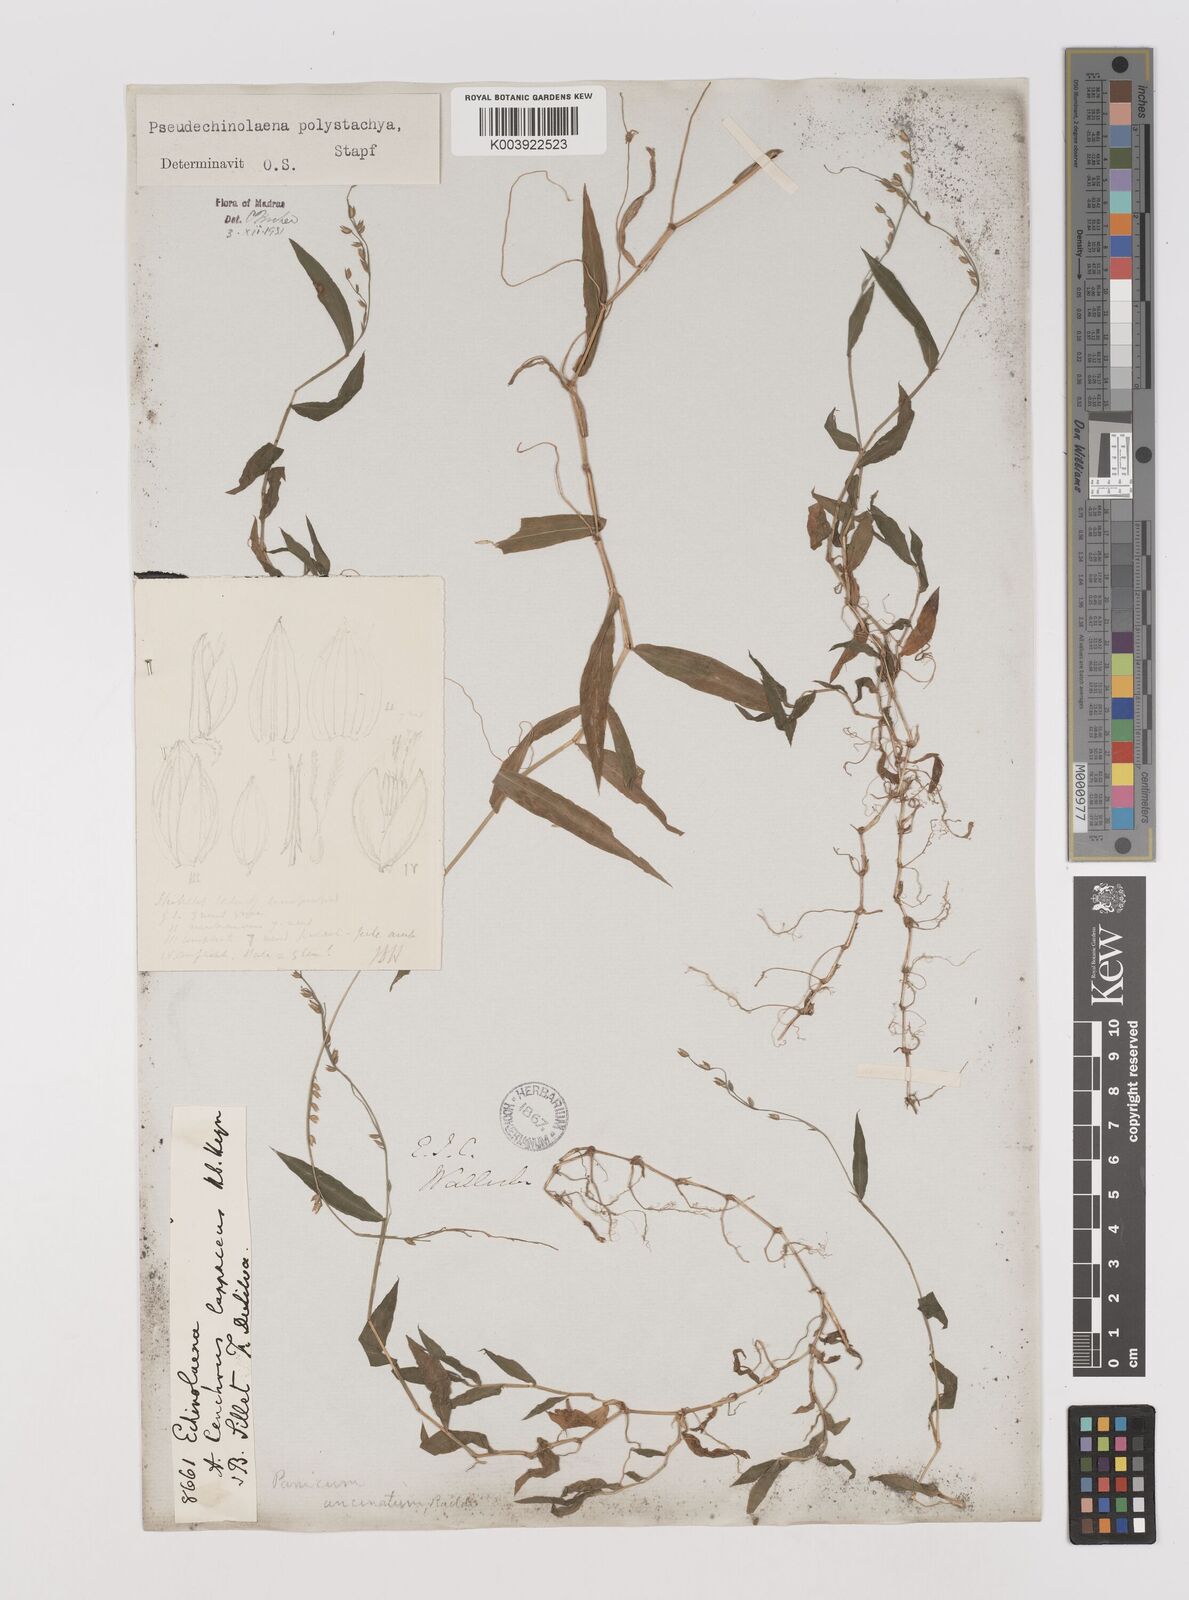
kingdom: Plantae
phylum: Tracheophyta
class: Liliopsida
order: Poales
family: Poaceae
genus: Pseudechinolaena
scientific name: Pseudechinolaena polystachya
